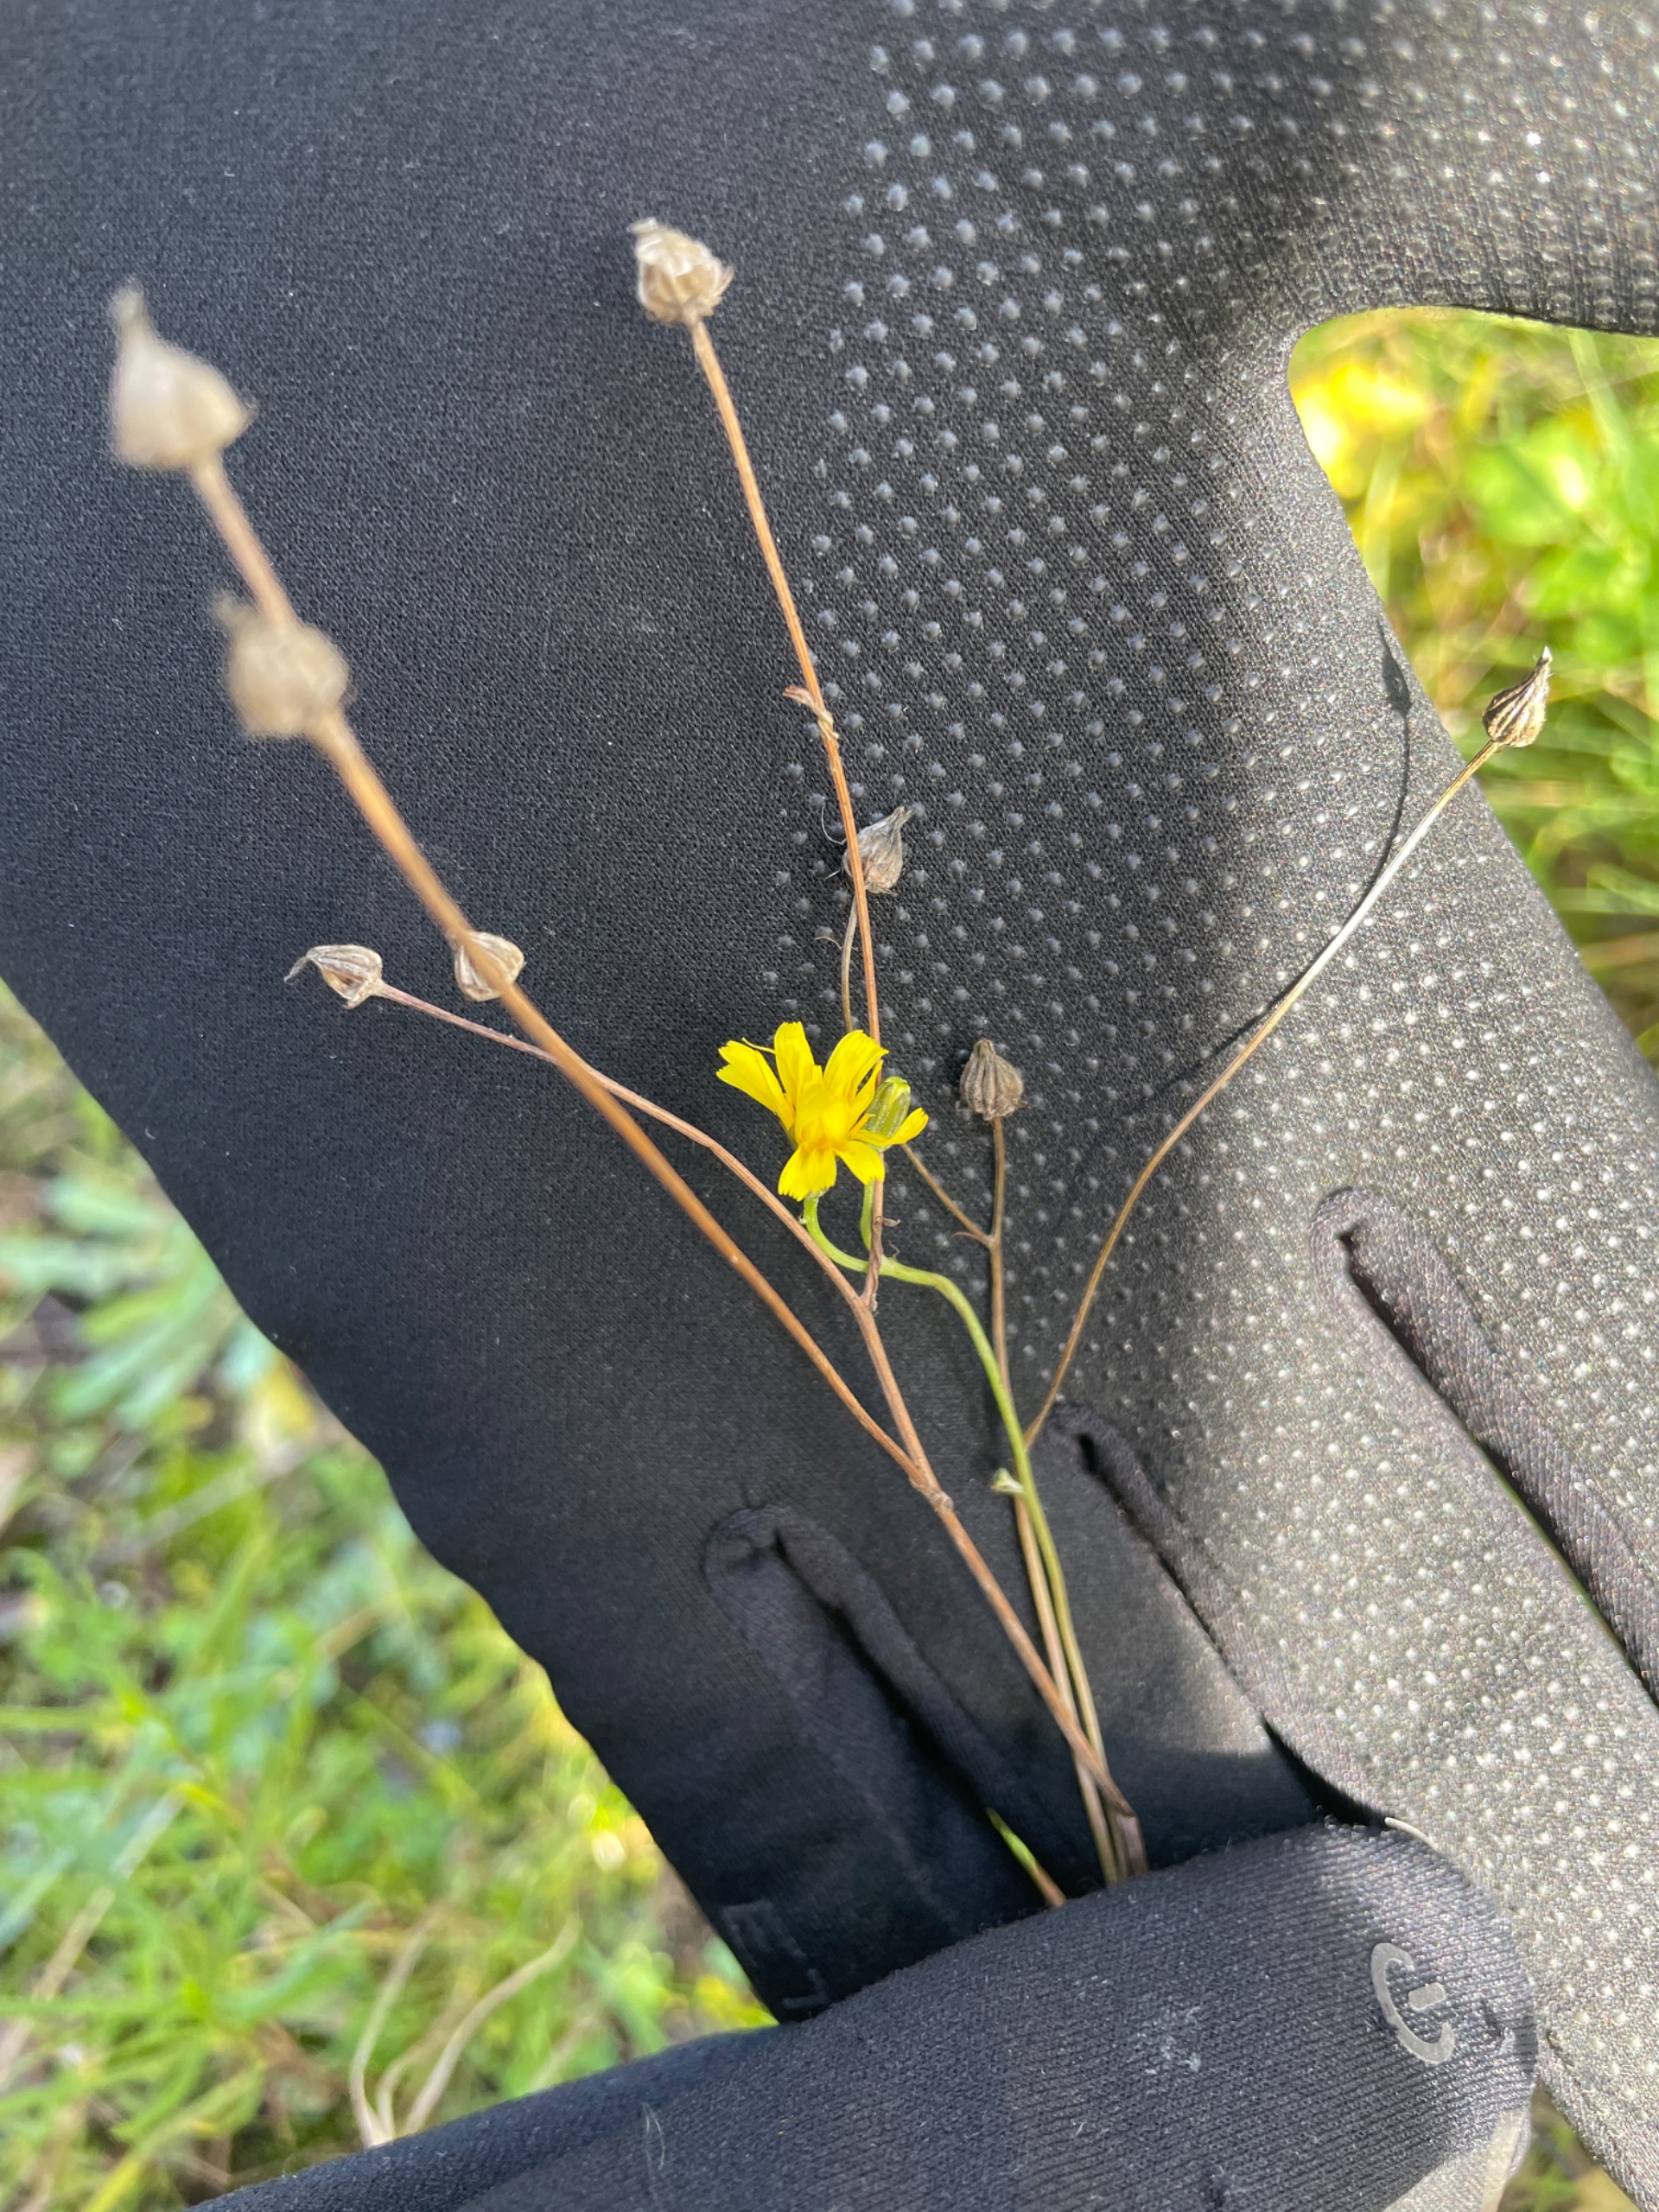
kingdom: Plantae
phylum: Tracheophyta
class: Magnoliopsida
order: Asterales
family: Asteraceae
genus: Crepis
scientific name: Crepis capillaris
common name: Grøn høgeskæg
